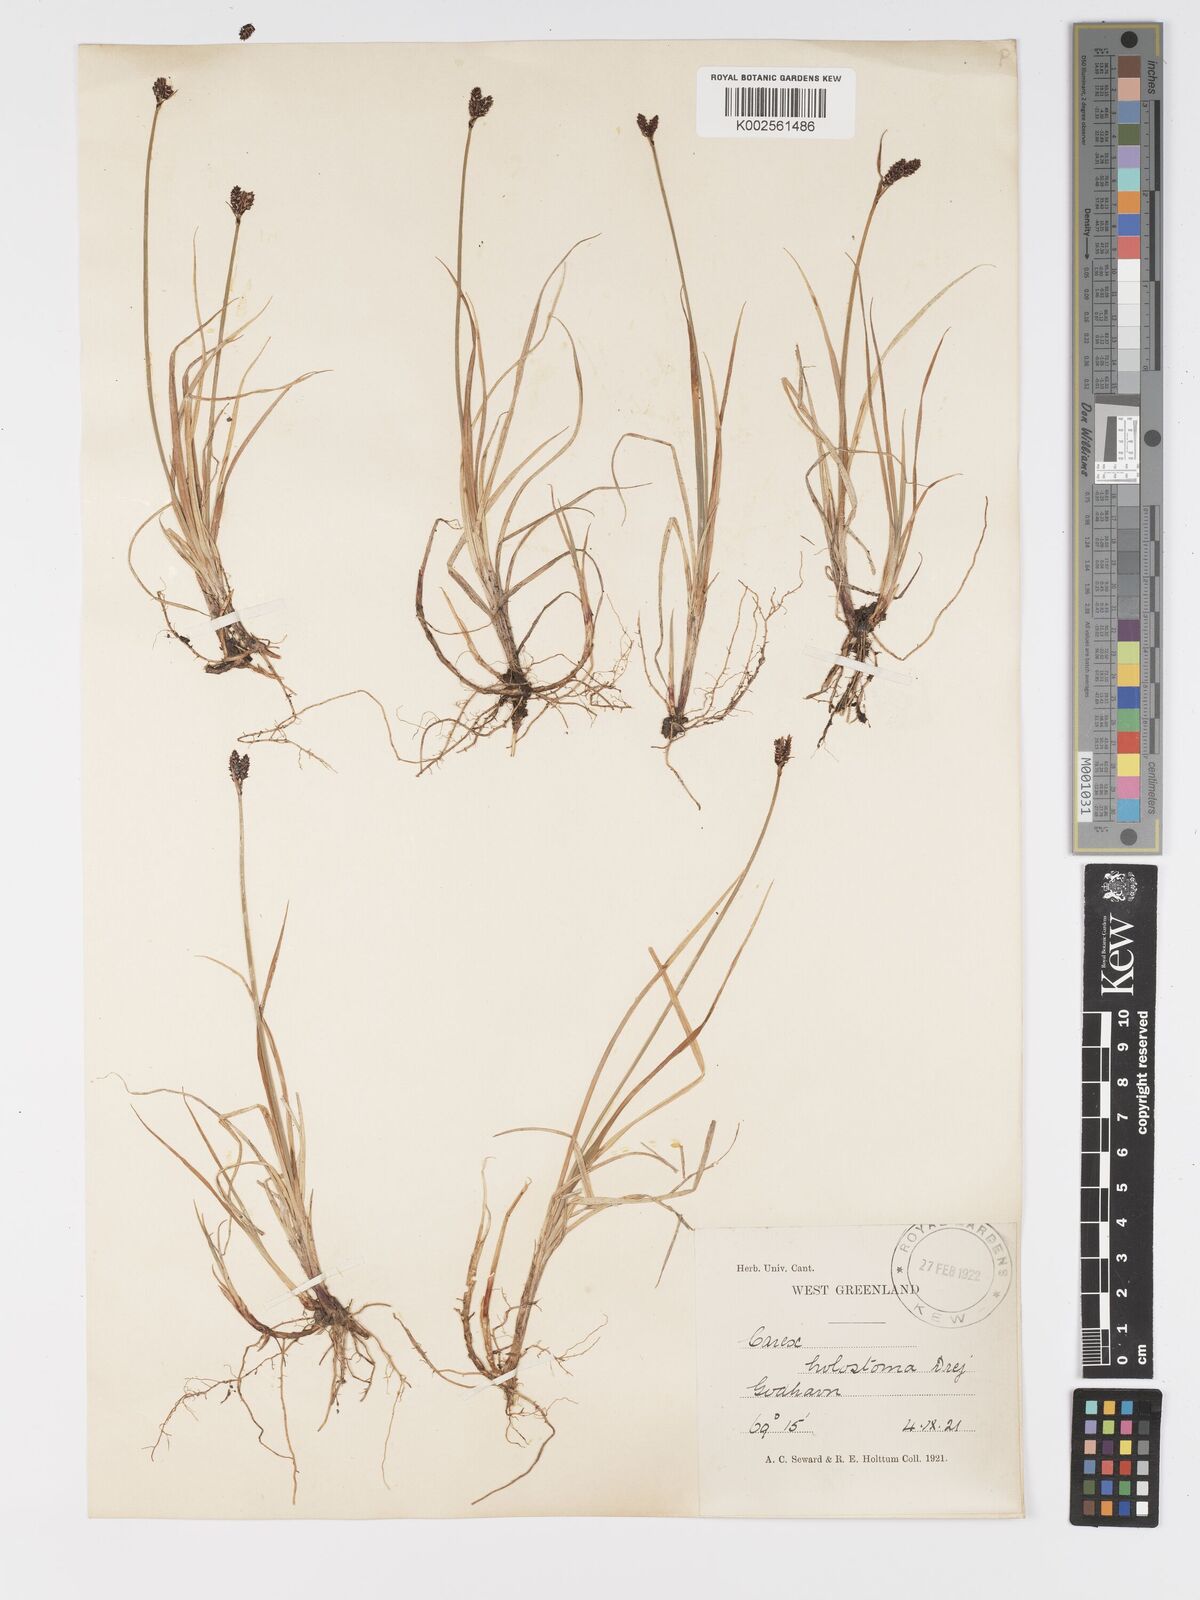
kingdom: Plantae
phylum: Tracheophyta
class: Liliopsida
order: Poales
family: Cyperaceae
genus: Carex
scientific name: Carex holostoma
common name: Arctic marsh sedge
